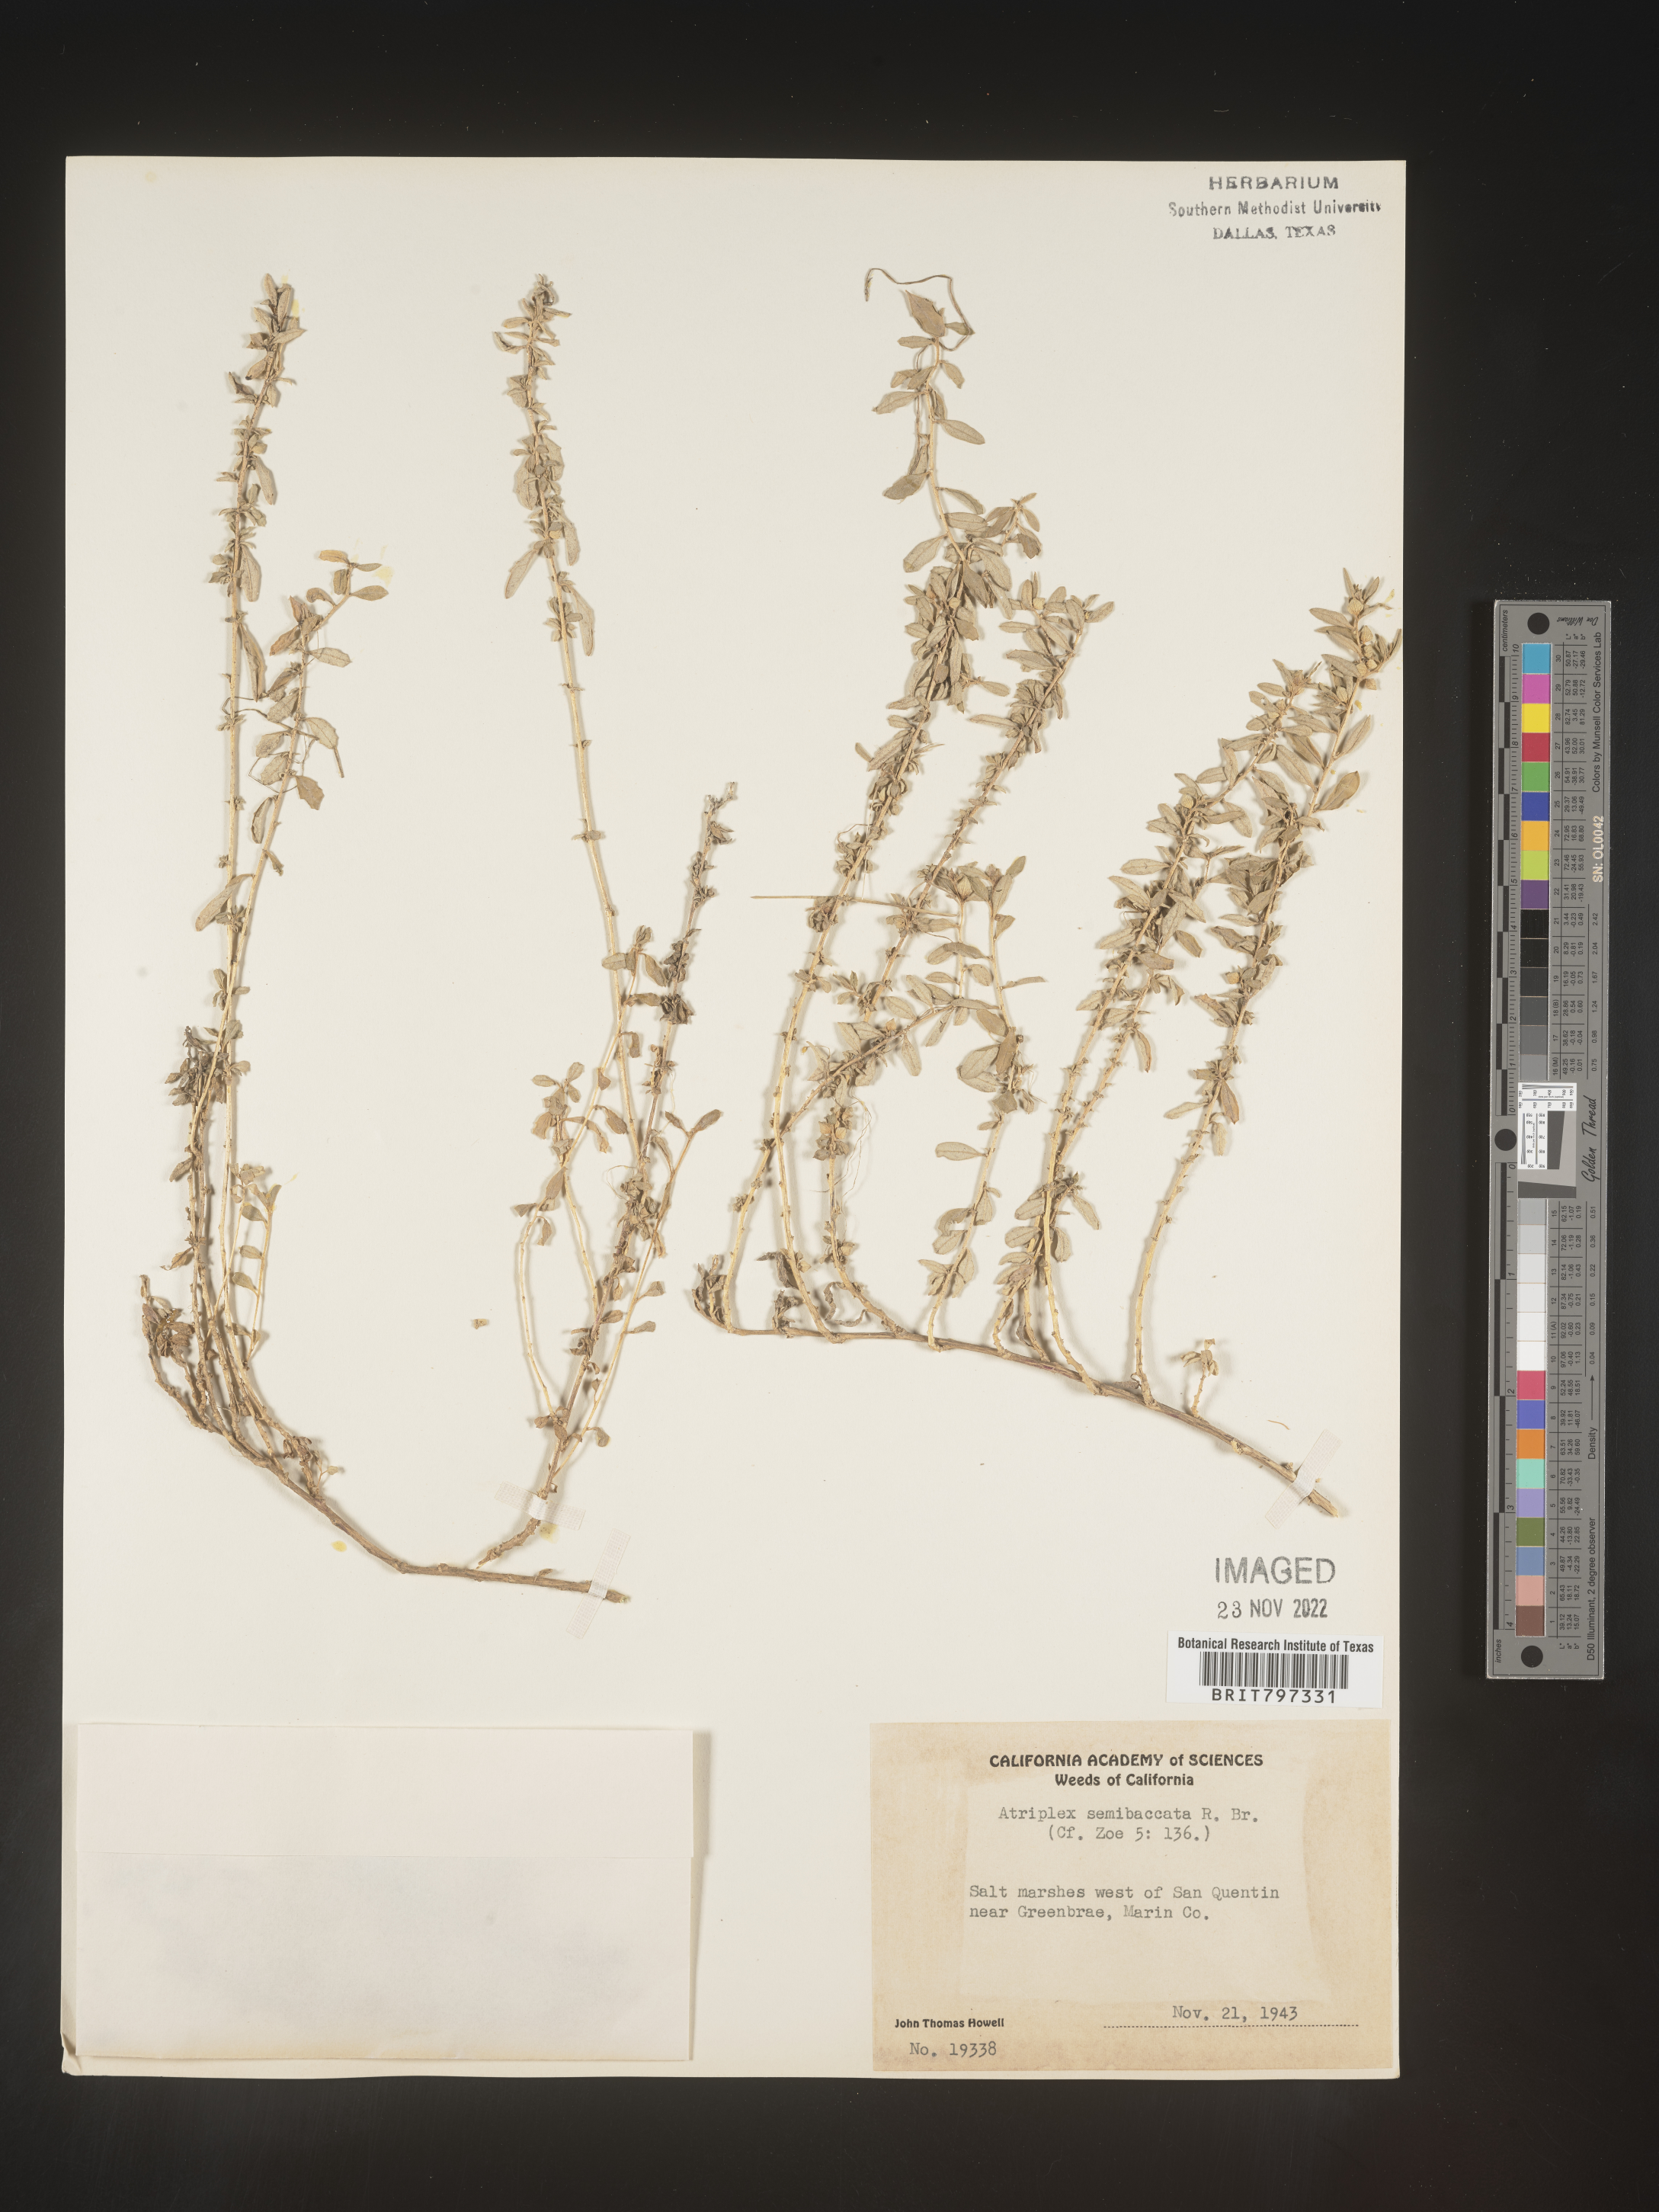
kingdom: Plantae
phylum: Tracheophyta
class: Magnoliopsida
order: Caryophyllales
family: Amaranthaceae
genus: Atriplex
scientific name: Atriplex
